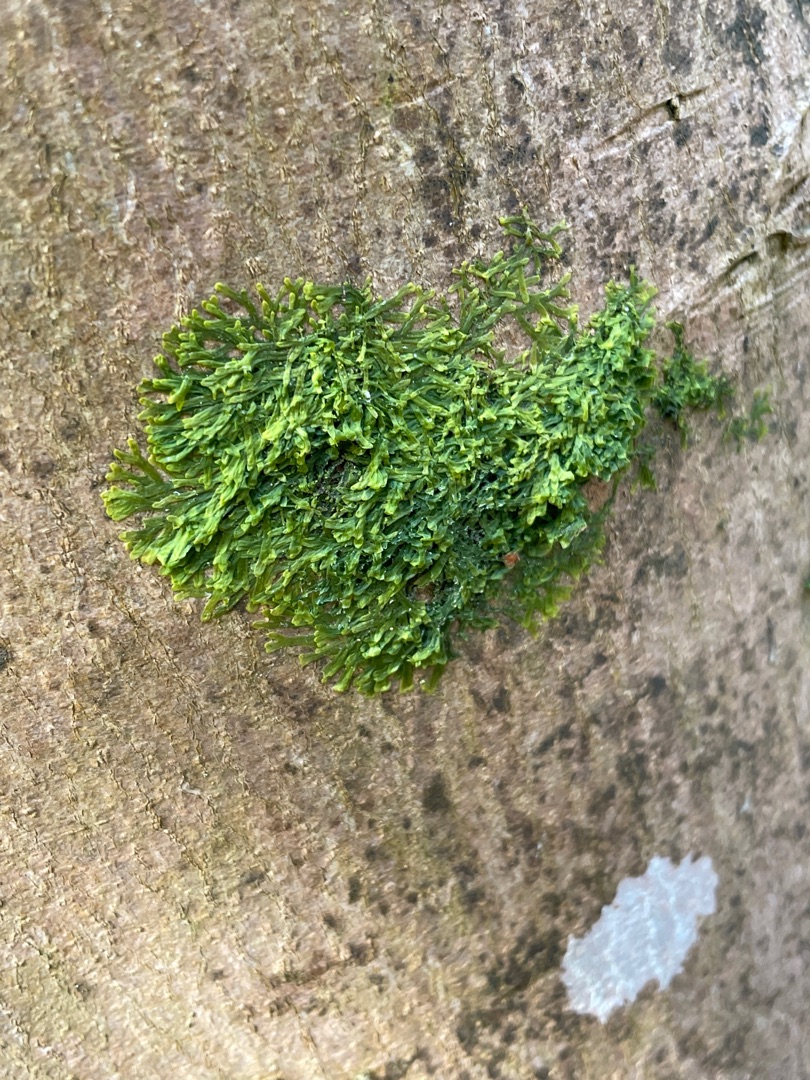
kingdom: Plantae
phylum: Marchantiophyta
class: Jungermanniopsida
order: Metzgeriales
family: Metzgeriaceae
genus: Metzgeria
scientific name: Metzgeria furcata
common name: Almindelig gaffelløv
